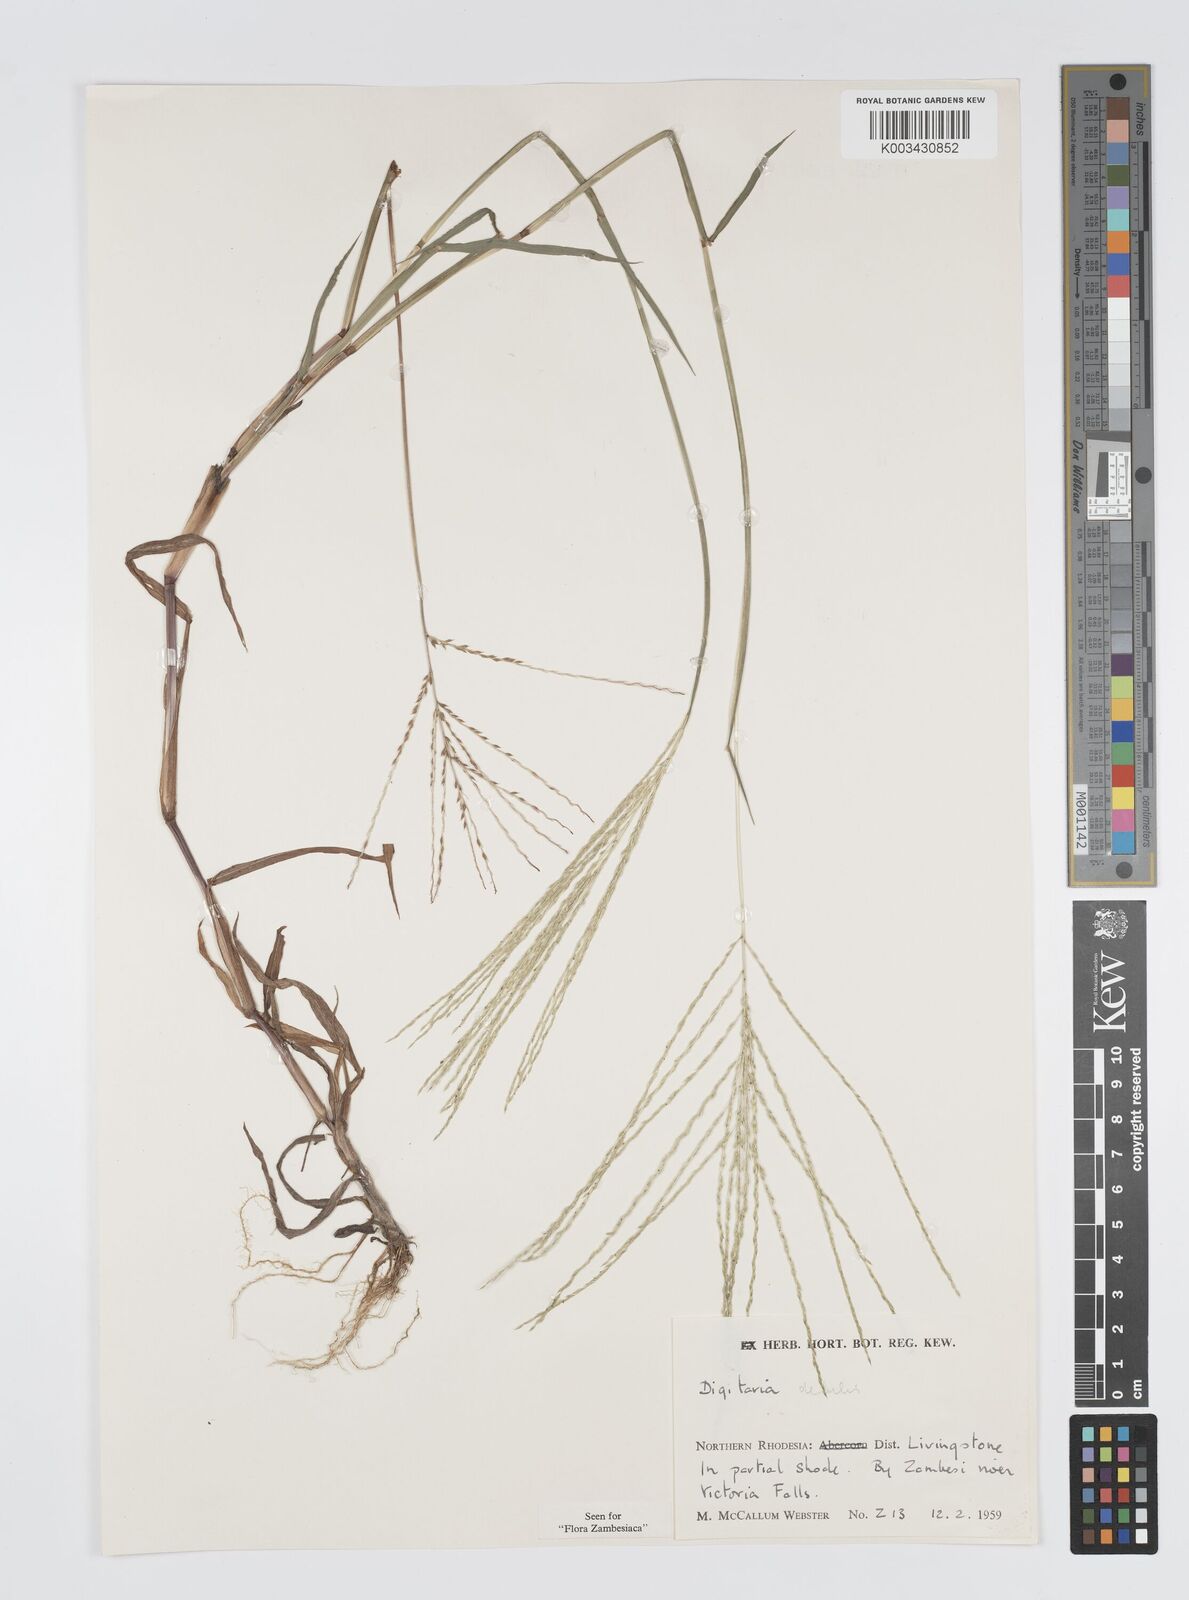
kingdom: Plantae
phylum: Tracheophyta
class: Liliopsida
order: Poales
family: Poaceae
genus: Digitaria
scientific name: Digitaria debilis
